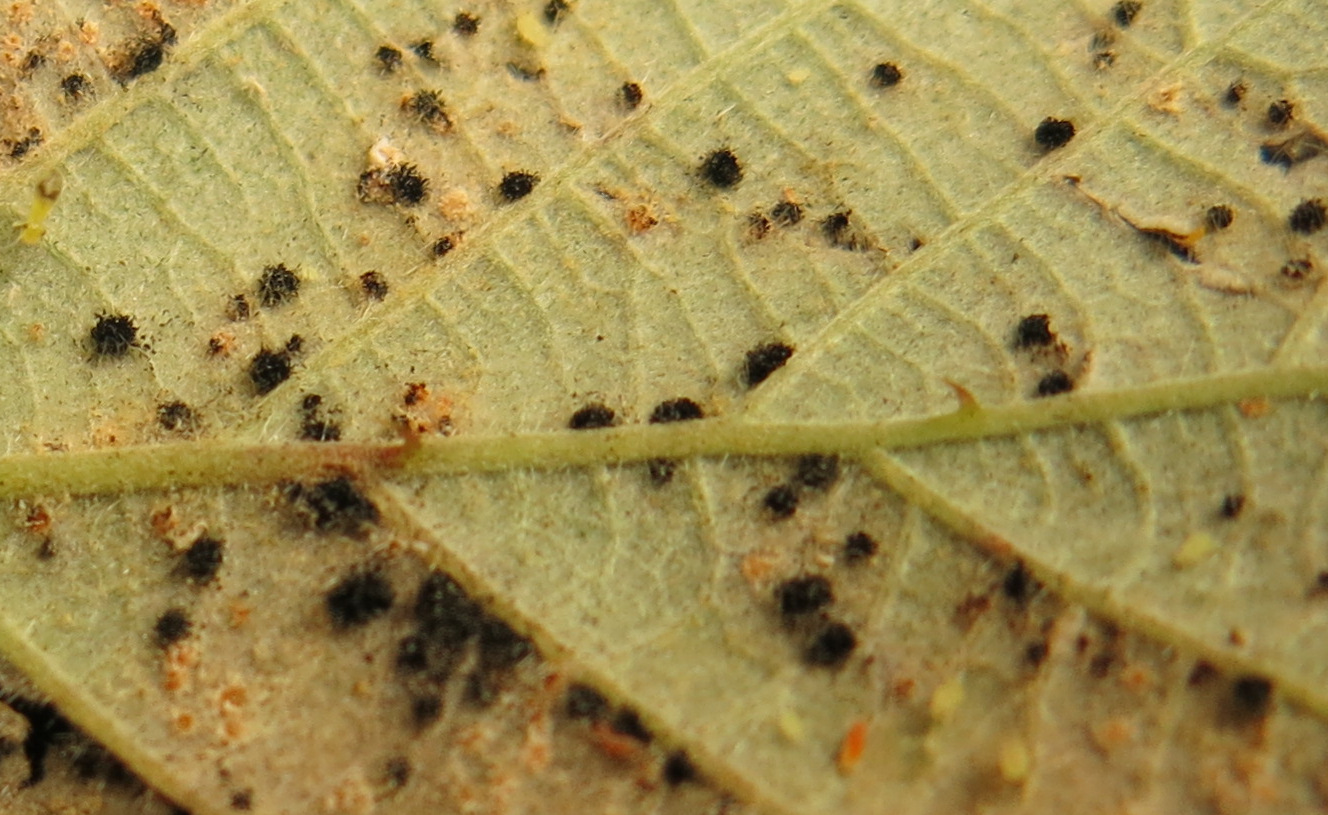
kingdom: Fungi
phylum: Basidiomycota
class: Pucciniomycetes
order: Pucciniales
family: Phragmidiaceae
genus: Phragmidium
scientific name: Phragmidium violaceum
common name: violet flercellerust
